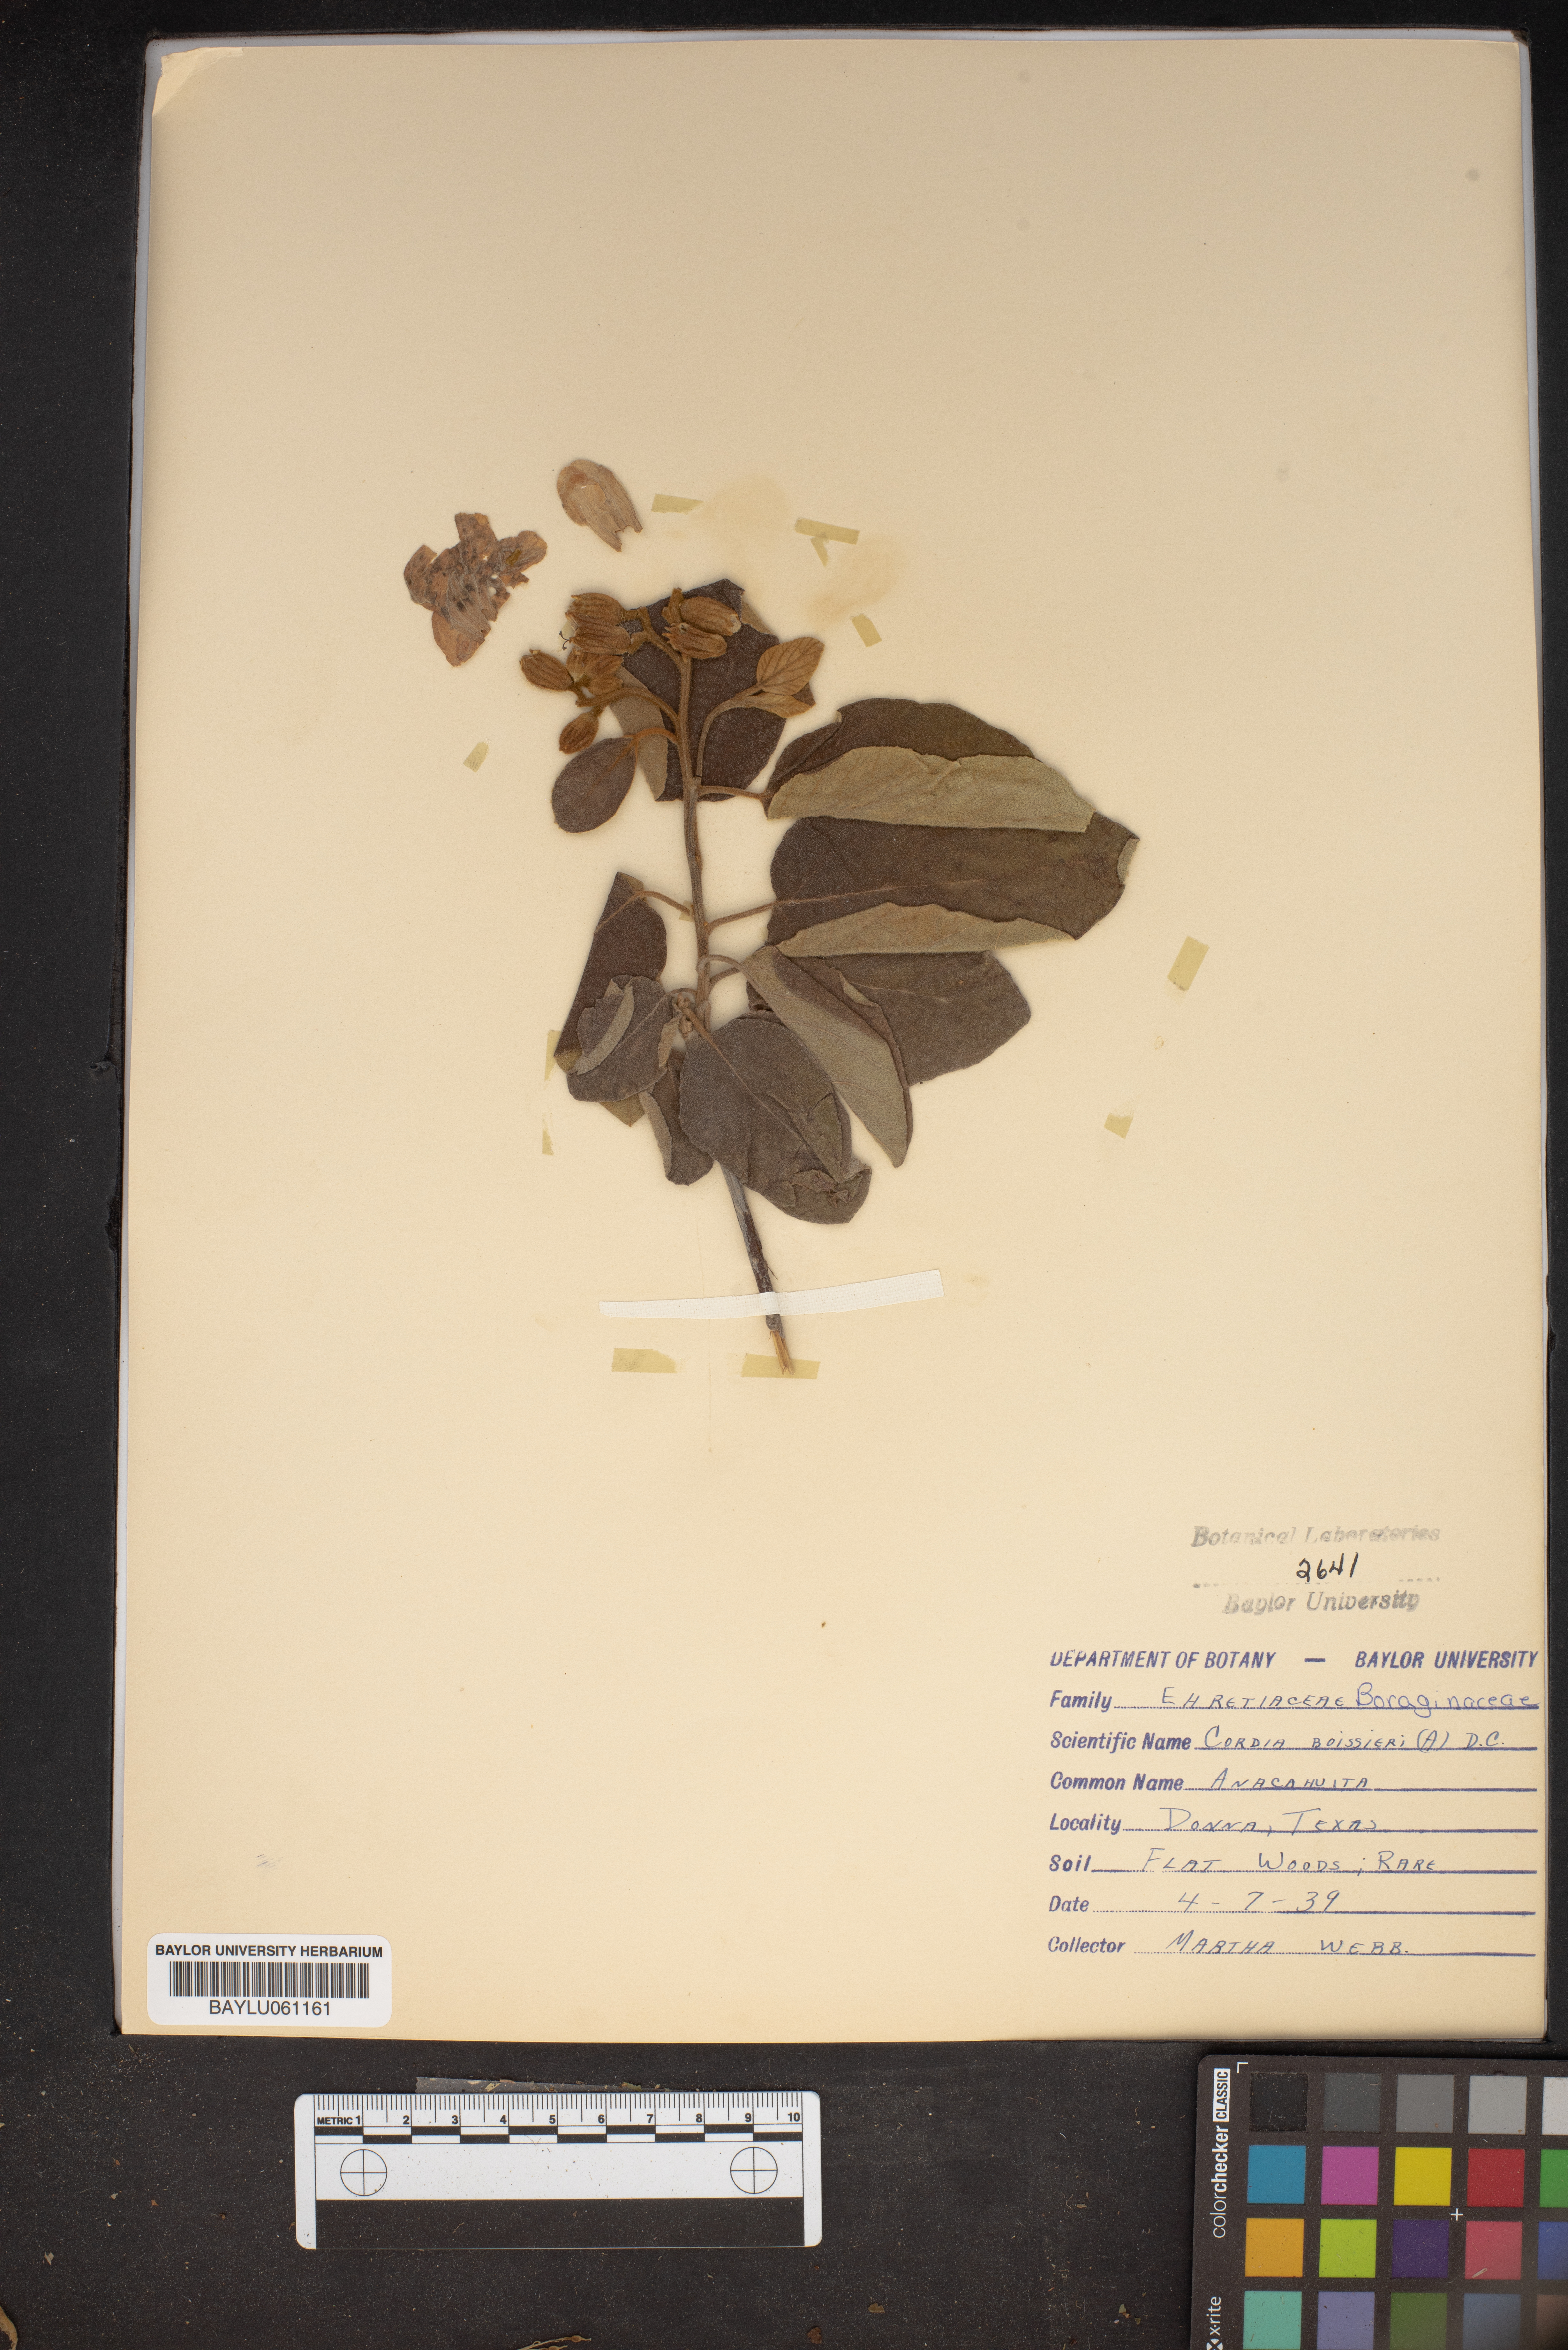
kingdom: Plantae
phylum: Tracheophyta
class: Magnoliopsida
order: Boraginales
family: Cordiaceae
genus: Cordia
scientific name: Cordia boissieri
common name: Mexican-olive
